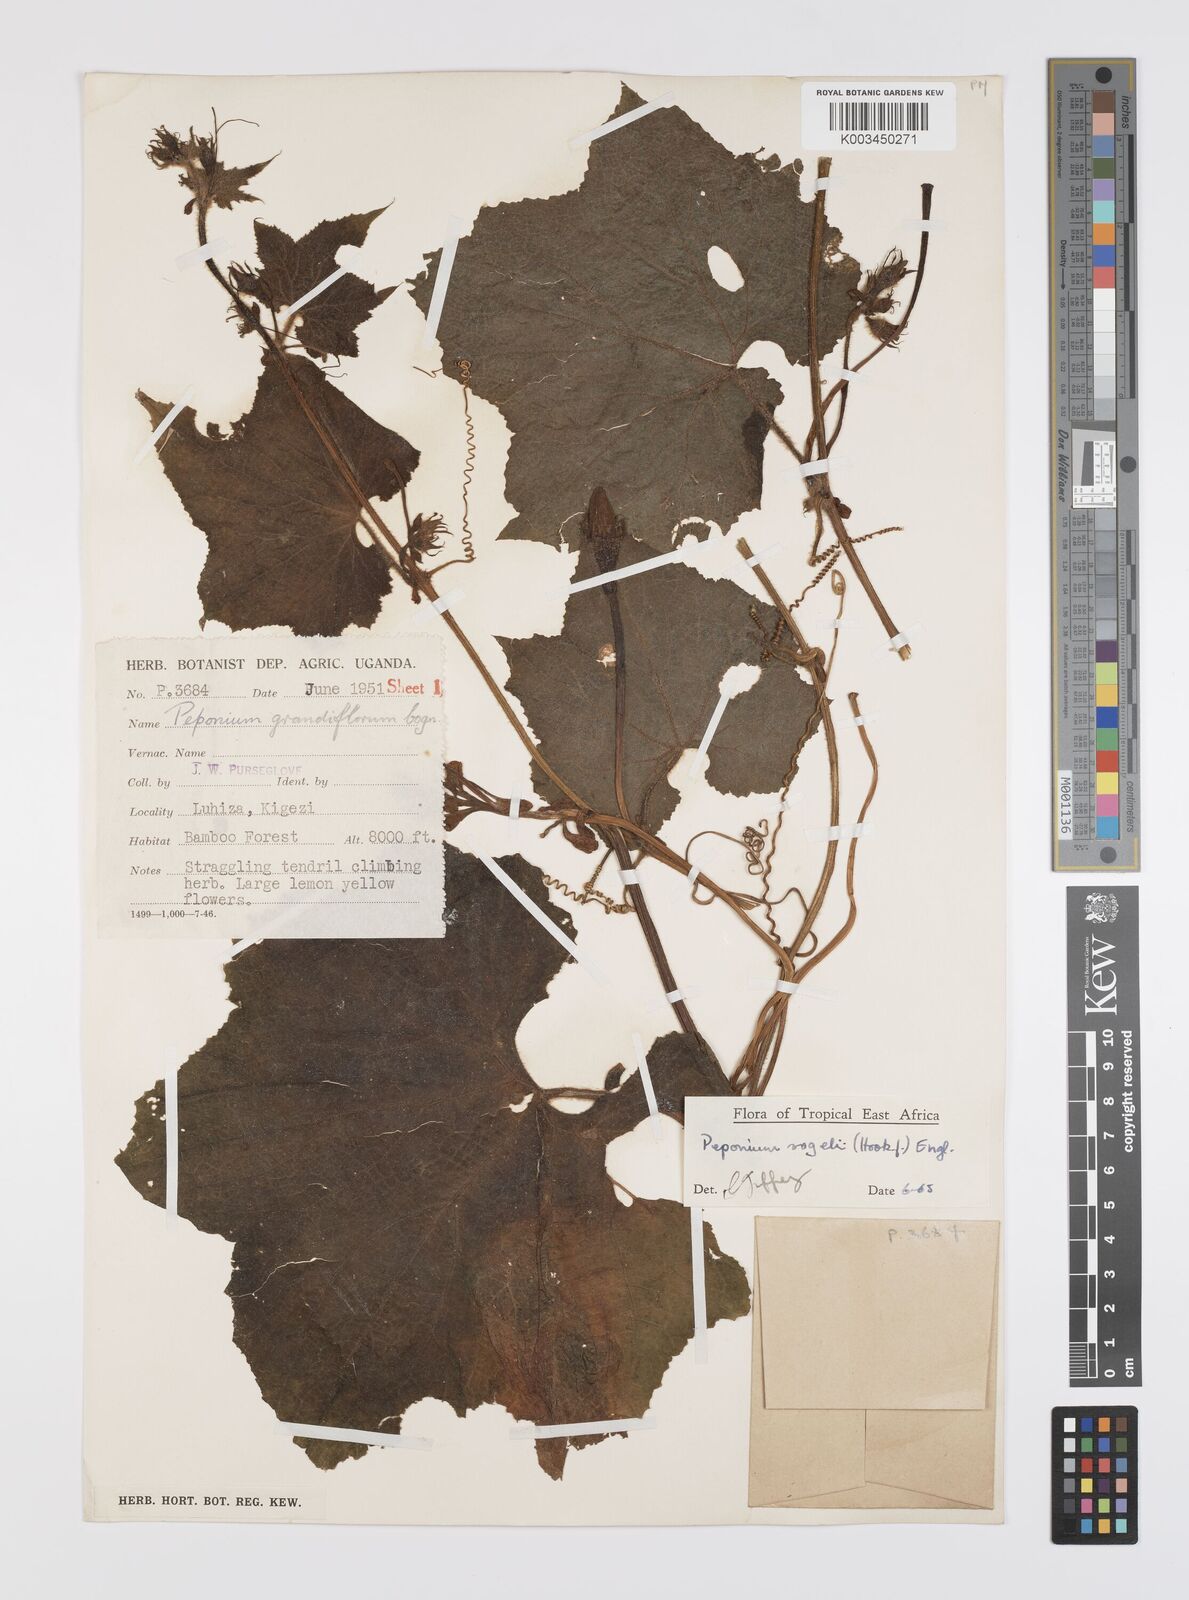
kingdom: Plantae
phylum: Tracheophyta
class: Magnoliopsida
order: Cucurbitales
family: Cucurbitaceae
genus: Peponium
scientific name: Peponium vogelii
